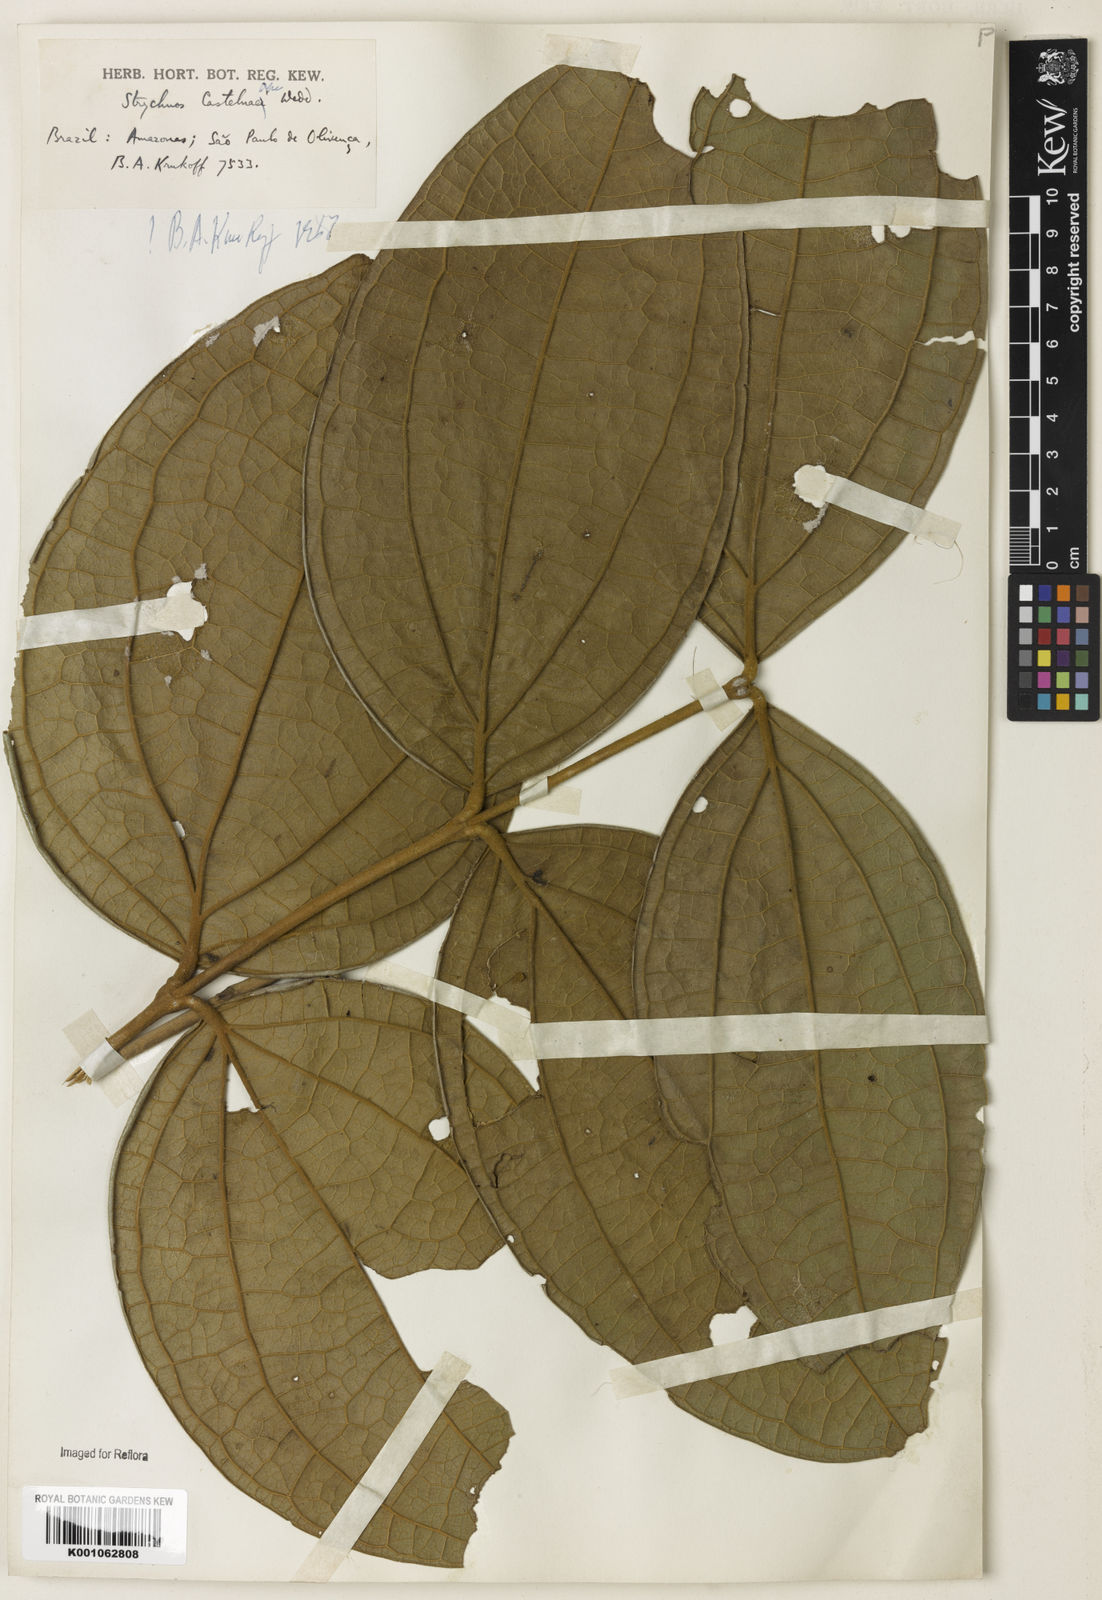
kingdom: Plantae
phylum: Tracheophyta
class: Magnoliopsida
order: Gentianales
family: Loganiaceae
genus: Strychnos
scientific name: Strychnos
